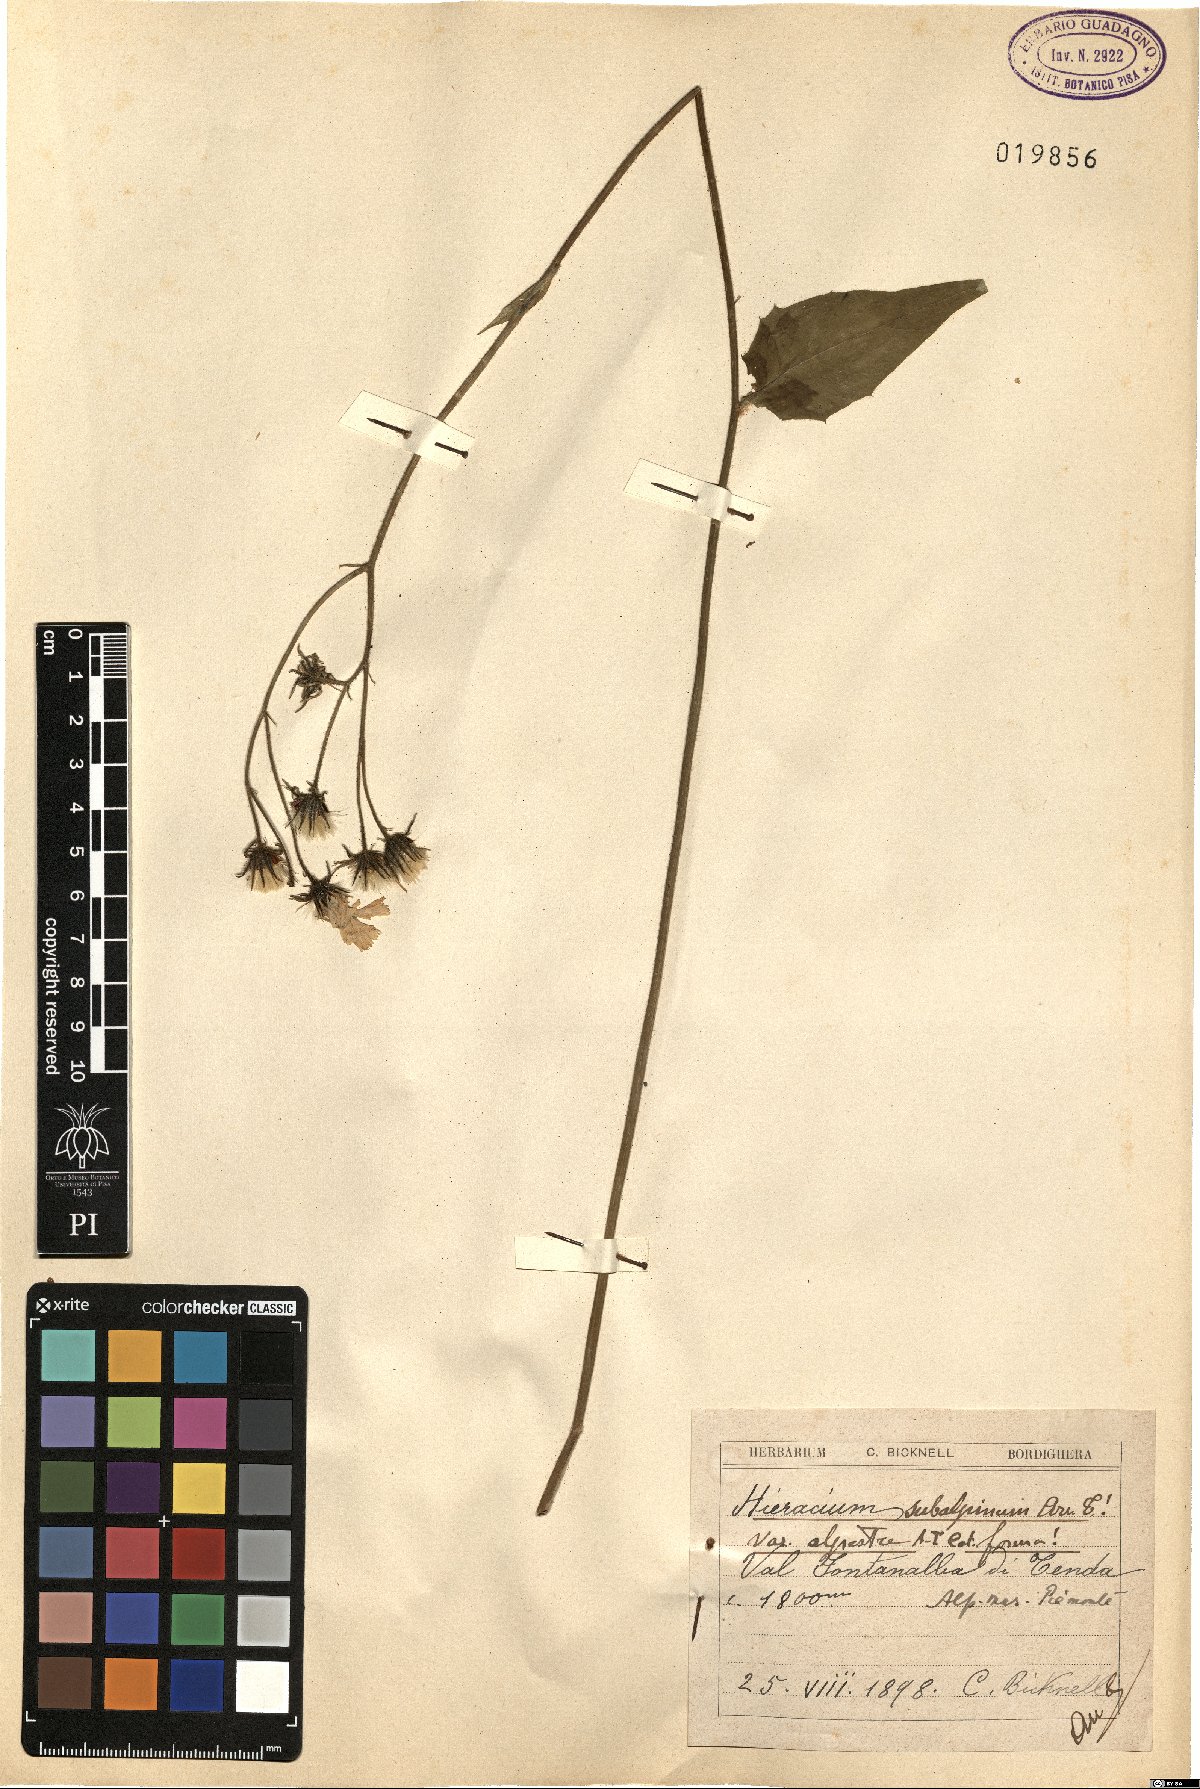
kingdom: Plantae
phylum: Tracheophyta
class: Magnoliopsida
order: Asterales
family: Asteraceae
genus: Hieracium
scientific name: Hieracium umbrosum
